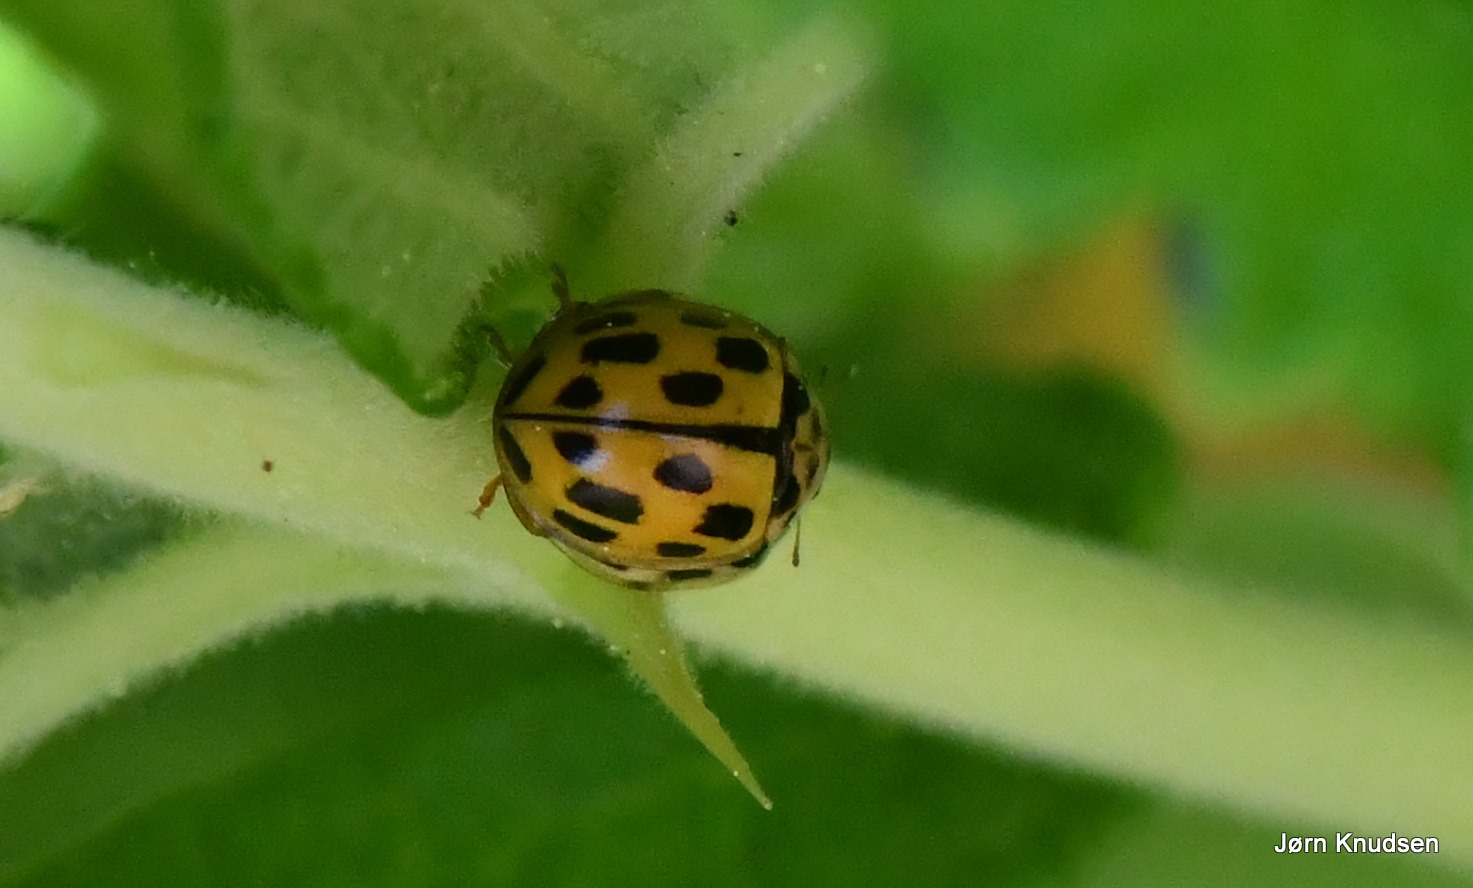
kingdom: Animalia
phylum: Arthropoda
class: Insecta
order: Coleoptera
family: Coccinellidae
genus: Propylaea
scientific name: Propylaea quatuordecimpunctata
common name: Skakbræt
